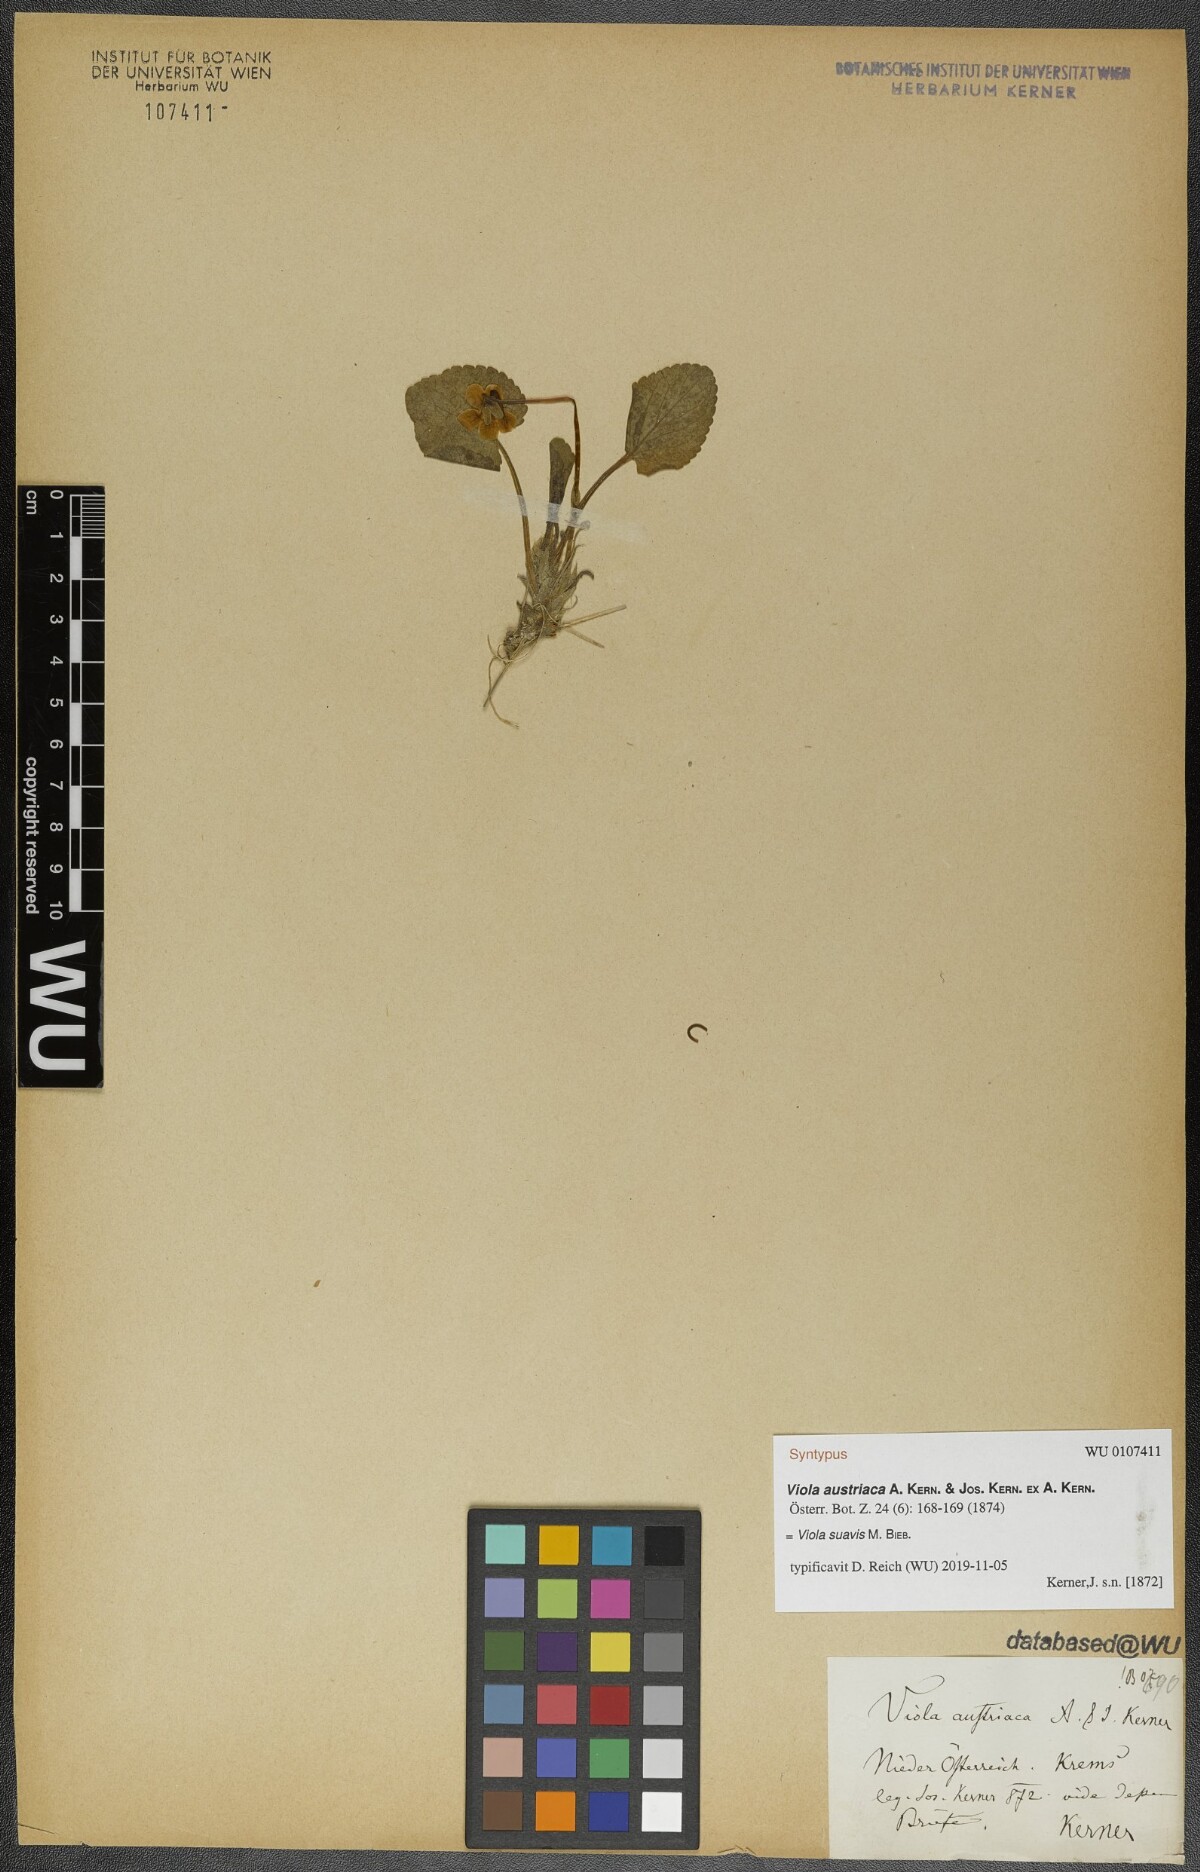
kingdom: Plantae
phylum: Tracheophyta
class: Magnoliopsida
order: Malpighiales
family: Violaceae
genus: Viola
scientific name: Viola suavis
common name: Russian violet
